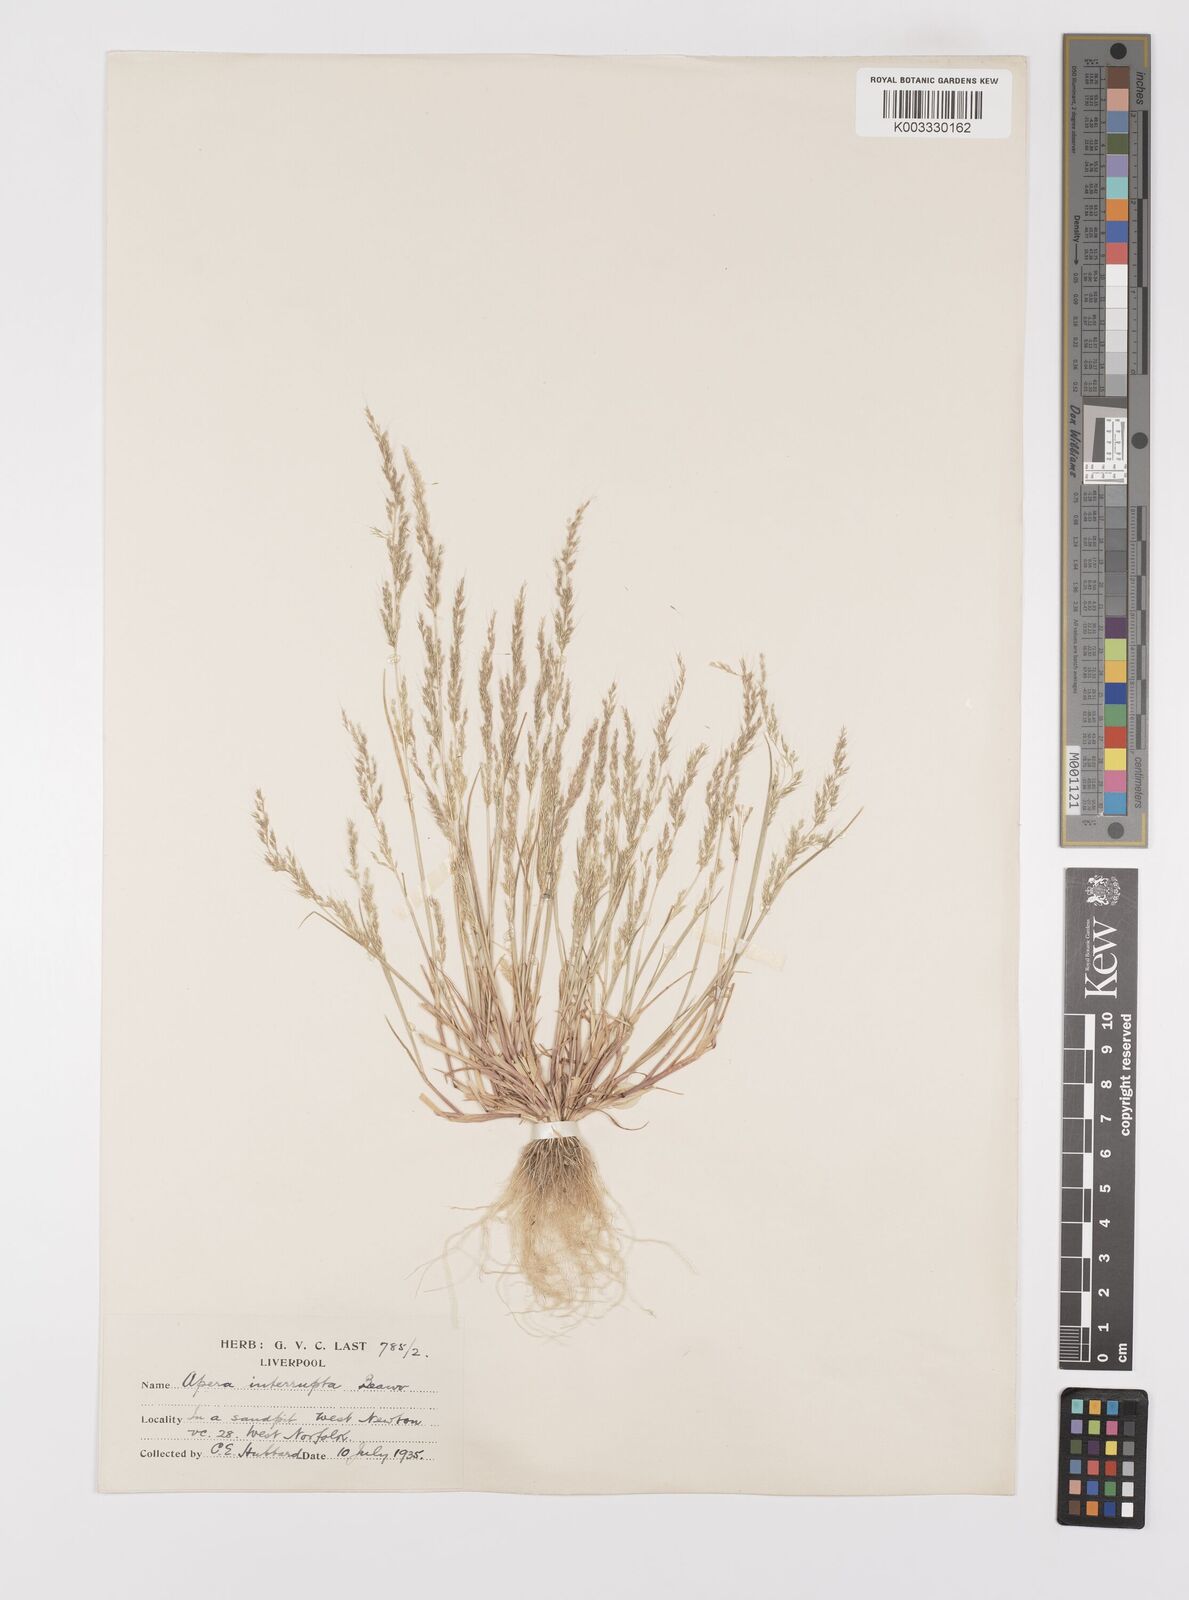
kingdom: Plantae
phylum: Tracheophyta
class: Liliopsida
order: Poales
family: Poaceae
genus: Apera
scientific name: Apera interrupta
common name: Dense silky-bent
